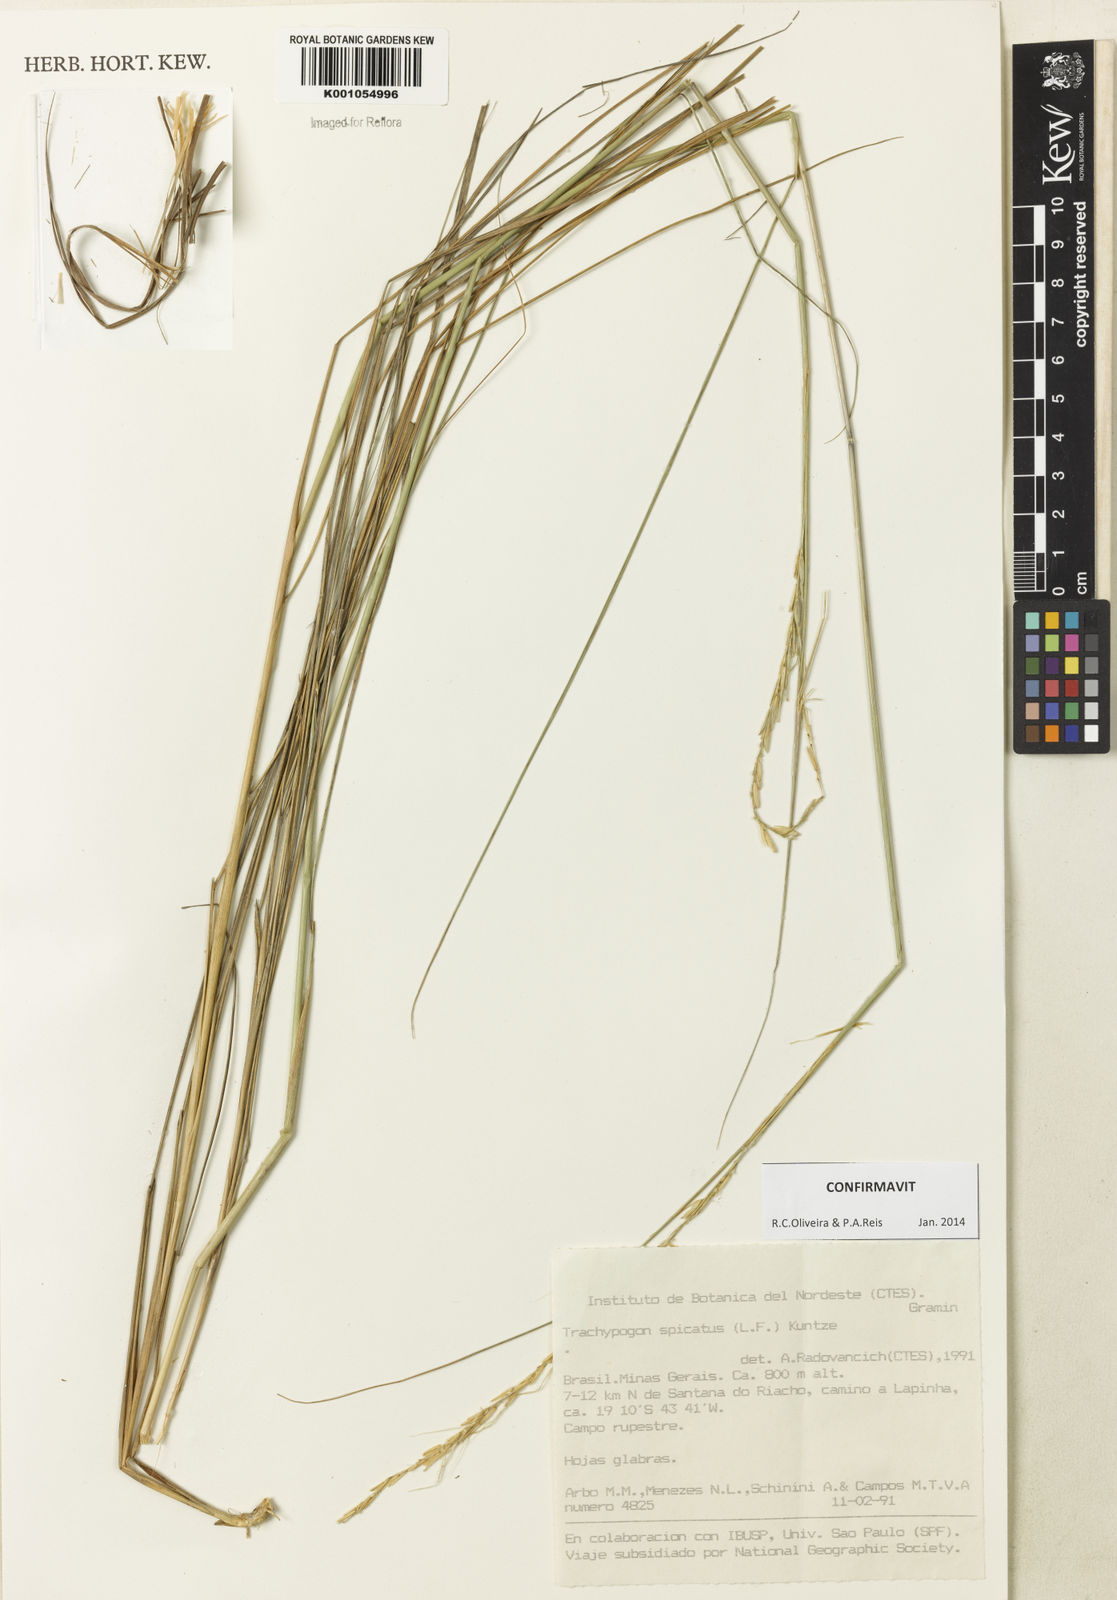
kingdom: Plantae
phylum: Tracheophyta
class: Liliopsida
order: Poales
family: Poaceae
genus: Trachypogon
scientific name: Trachypogon spicatus
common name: Crinkle-awn
